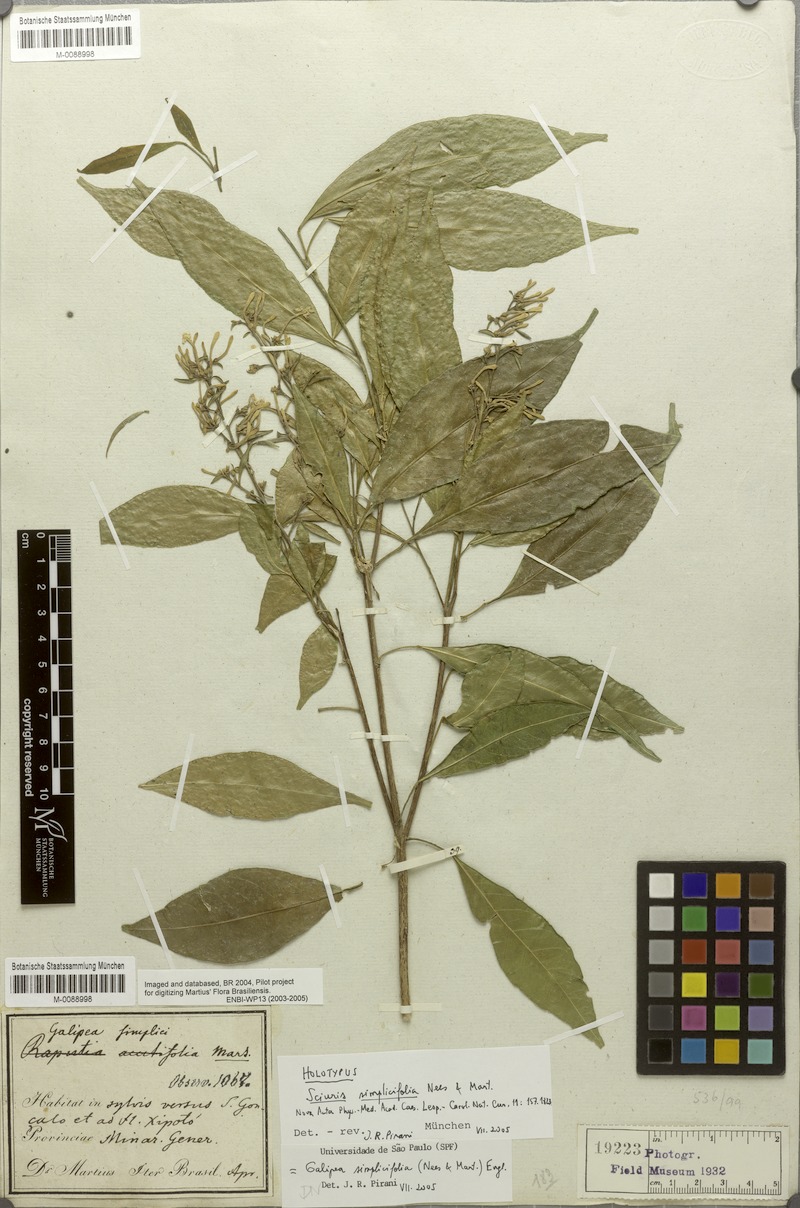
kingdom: Plantae
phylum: Tracheophyta
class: Magnoliopsida
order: Sapindales
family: Rutaceae
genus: Galipea
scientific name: Galipea simplicifolia
